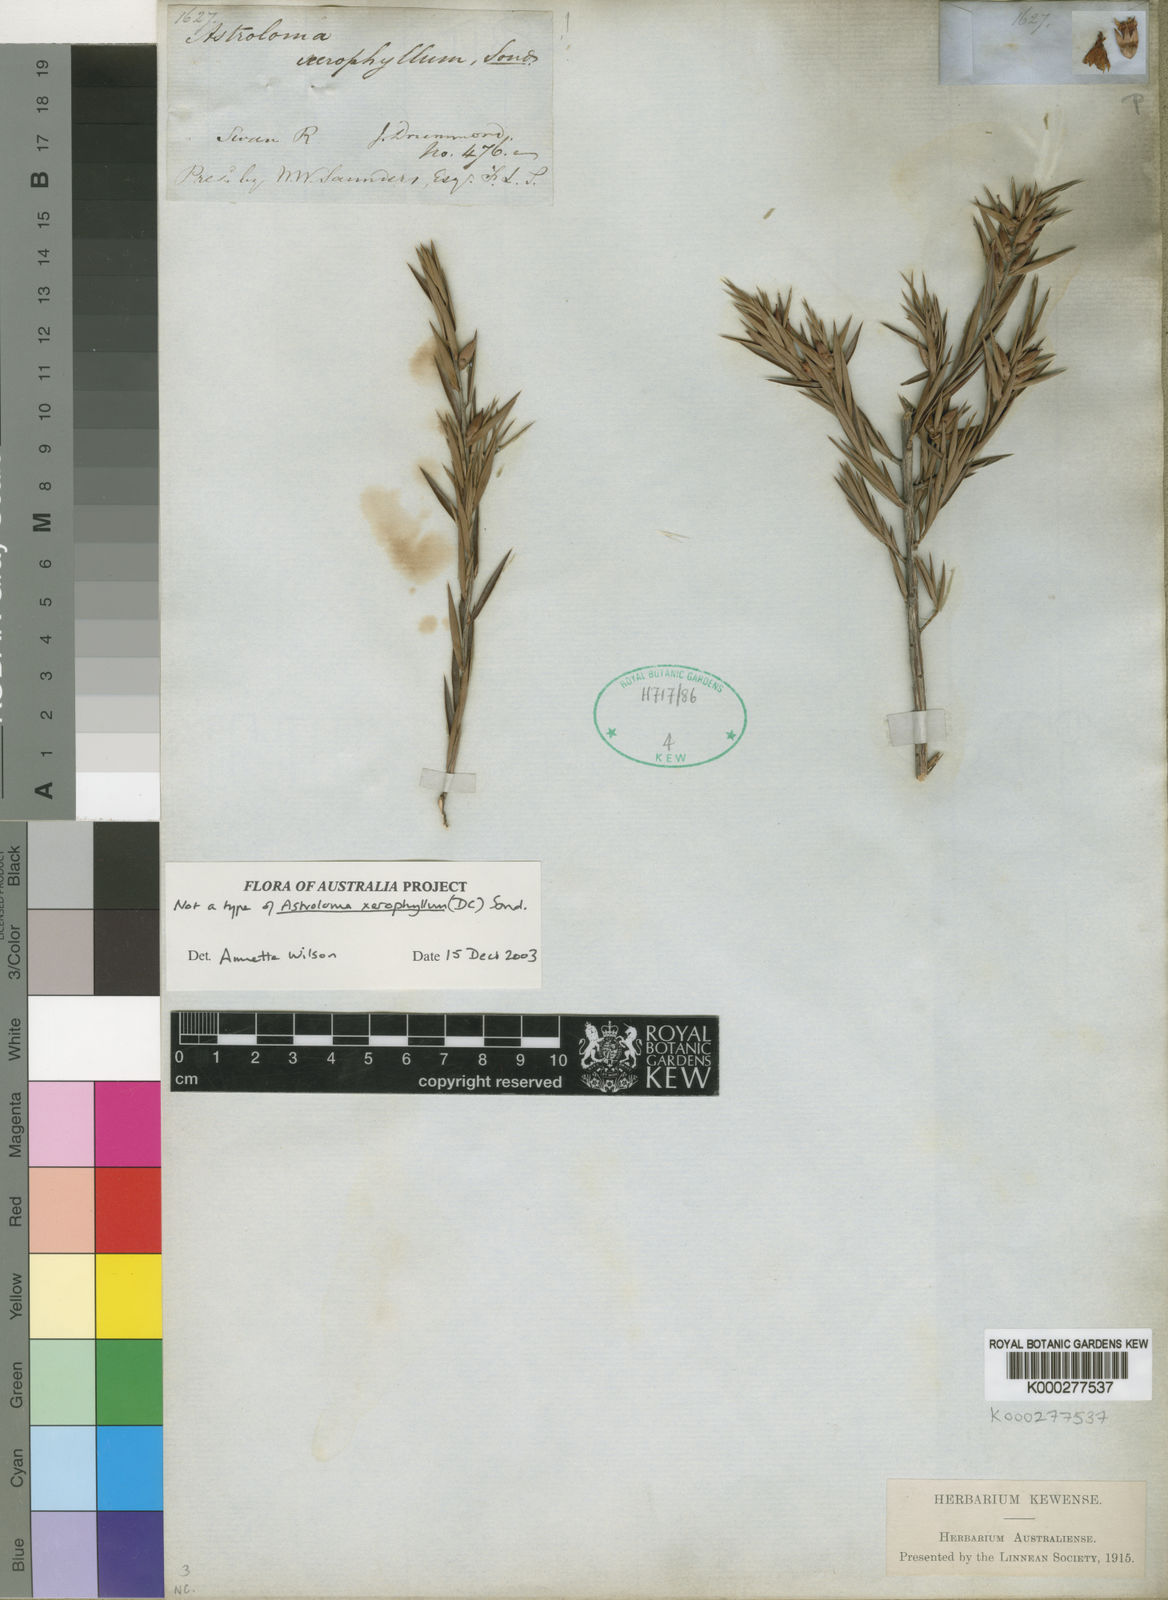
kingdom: Plantae
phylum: Tracheophyta
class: Magnoliopsida
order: Ericales
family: Ericaceae
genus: Styphelia
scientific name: Styphelia xerophylla
